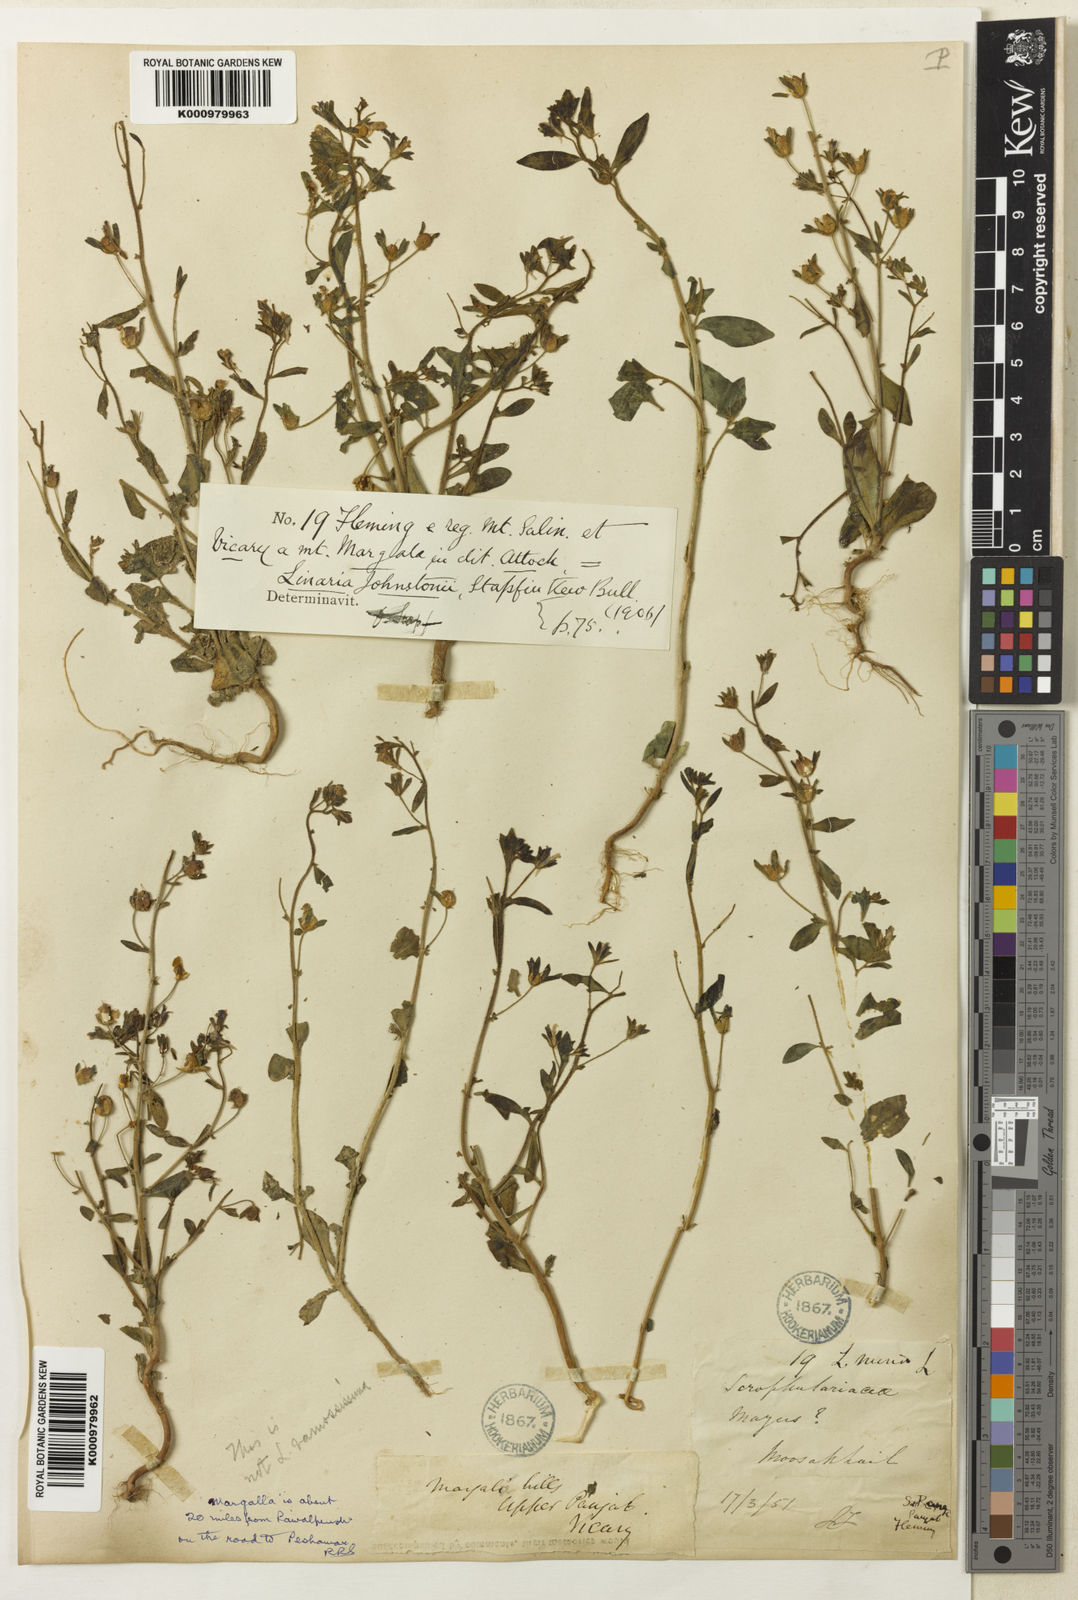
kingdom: Plantae
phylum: Tracheophyta
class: Magnoliopsida
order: Lamiales
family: Plantaginaceae
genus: Chaenorhinum
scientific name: Chaenorhinum johnstonii
